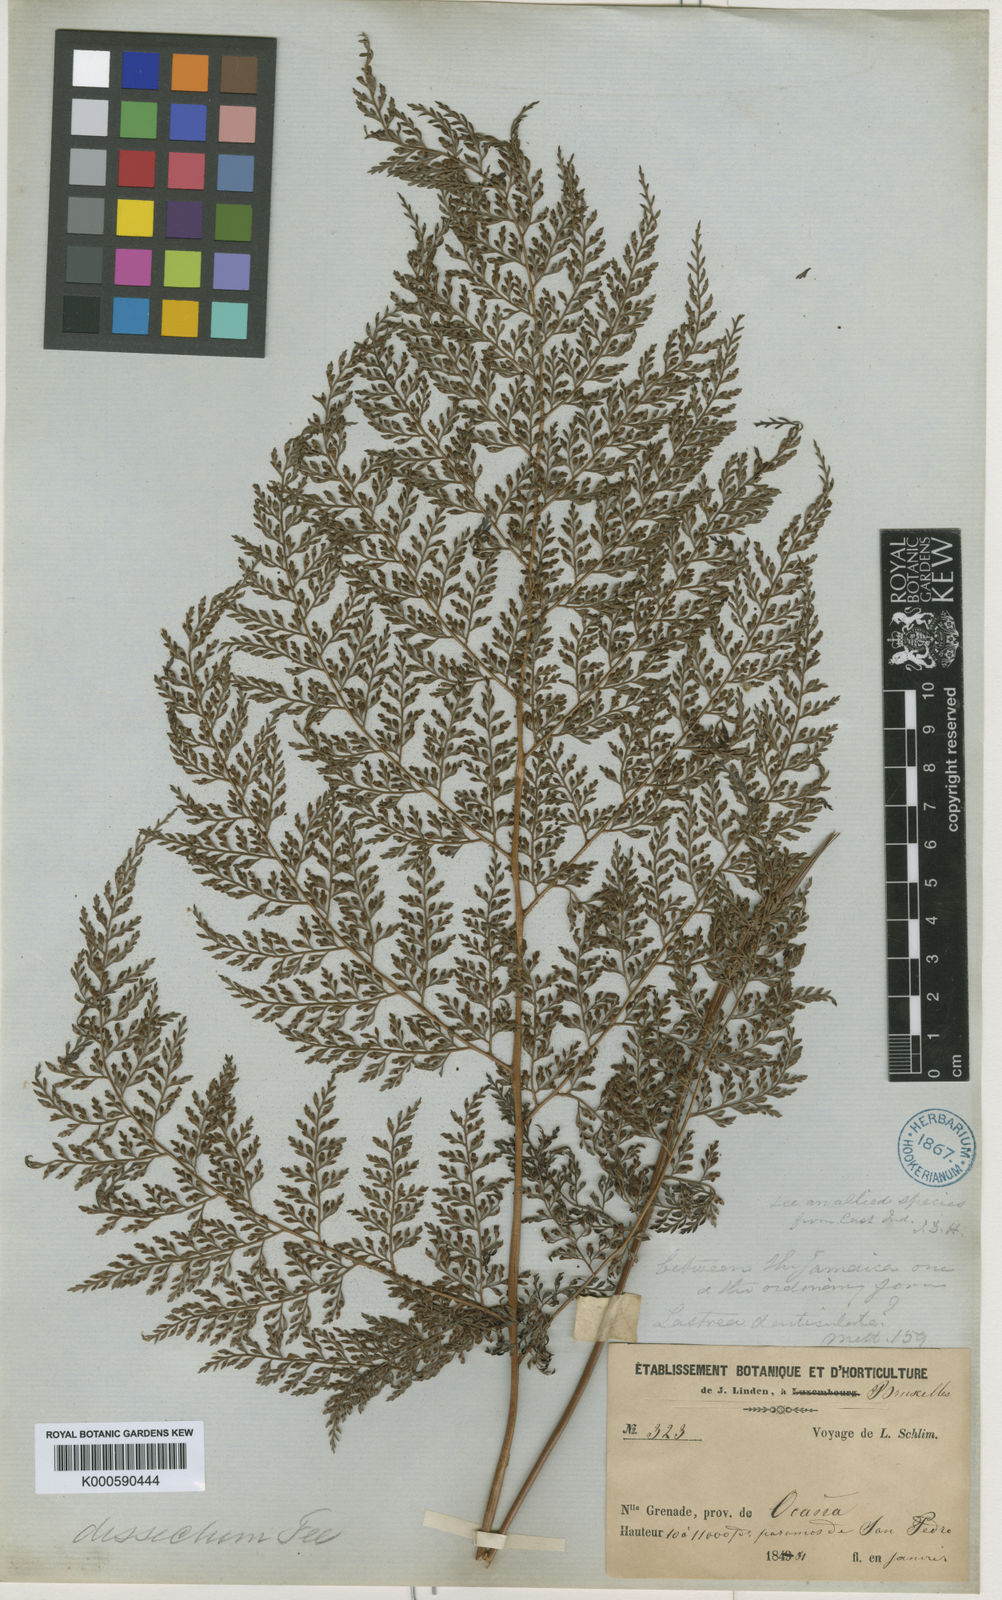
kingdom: Plantae
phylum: Tracheophyta
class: Polypodiopsida
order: Polypodiales
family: Dryopteridaceae
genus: Arachniodes
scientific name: Arachniodes denticulata
